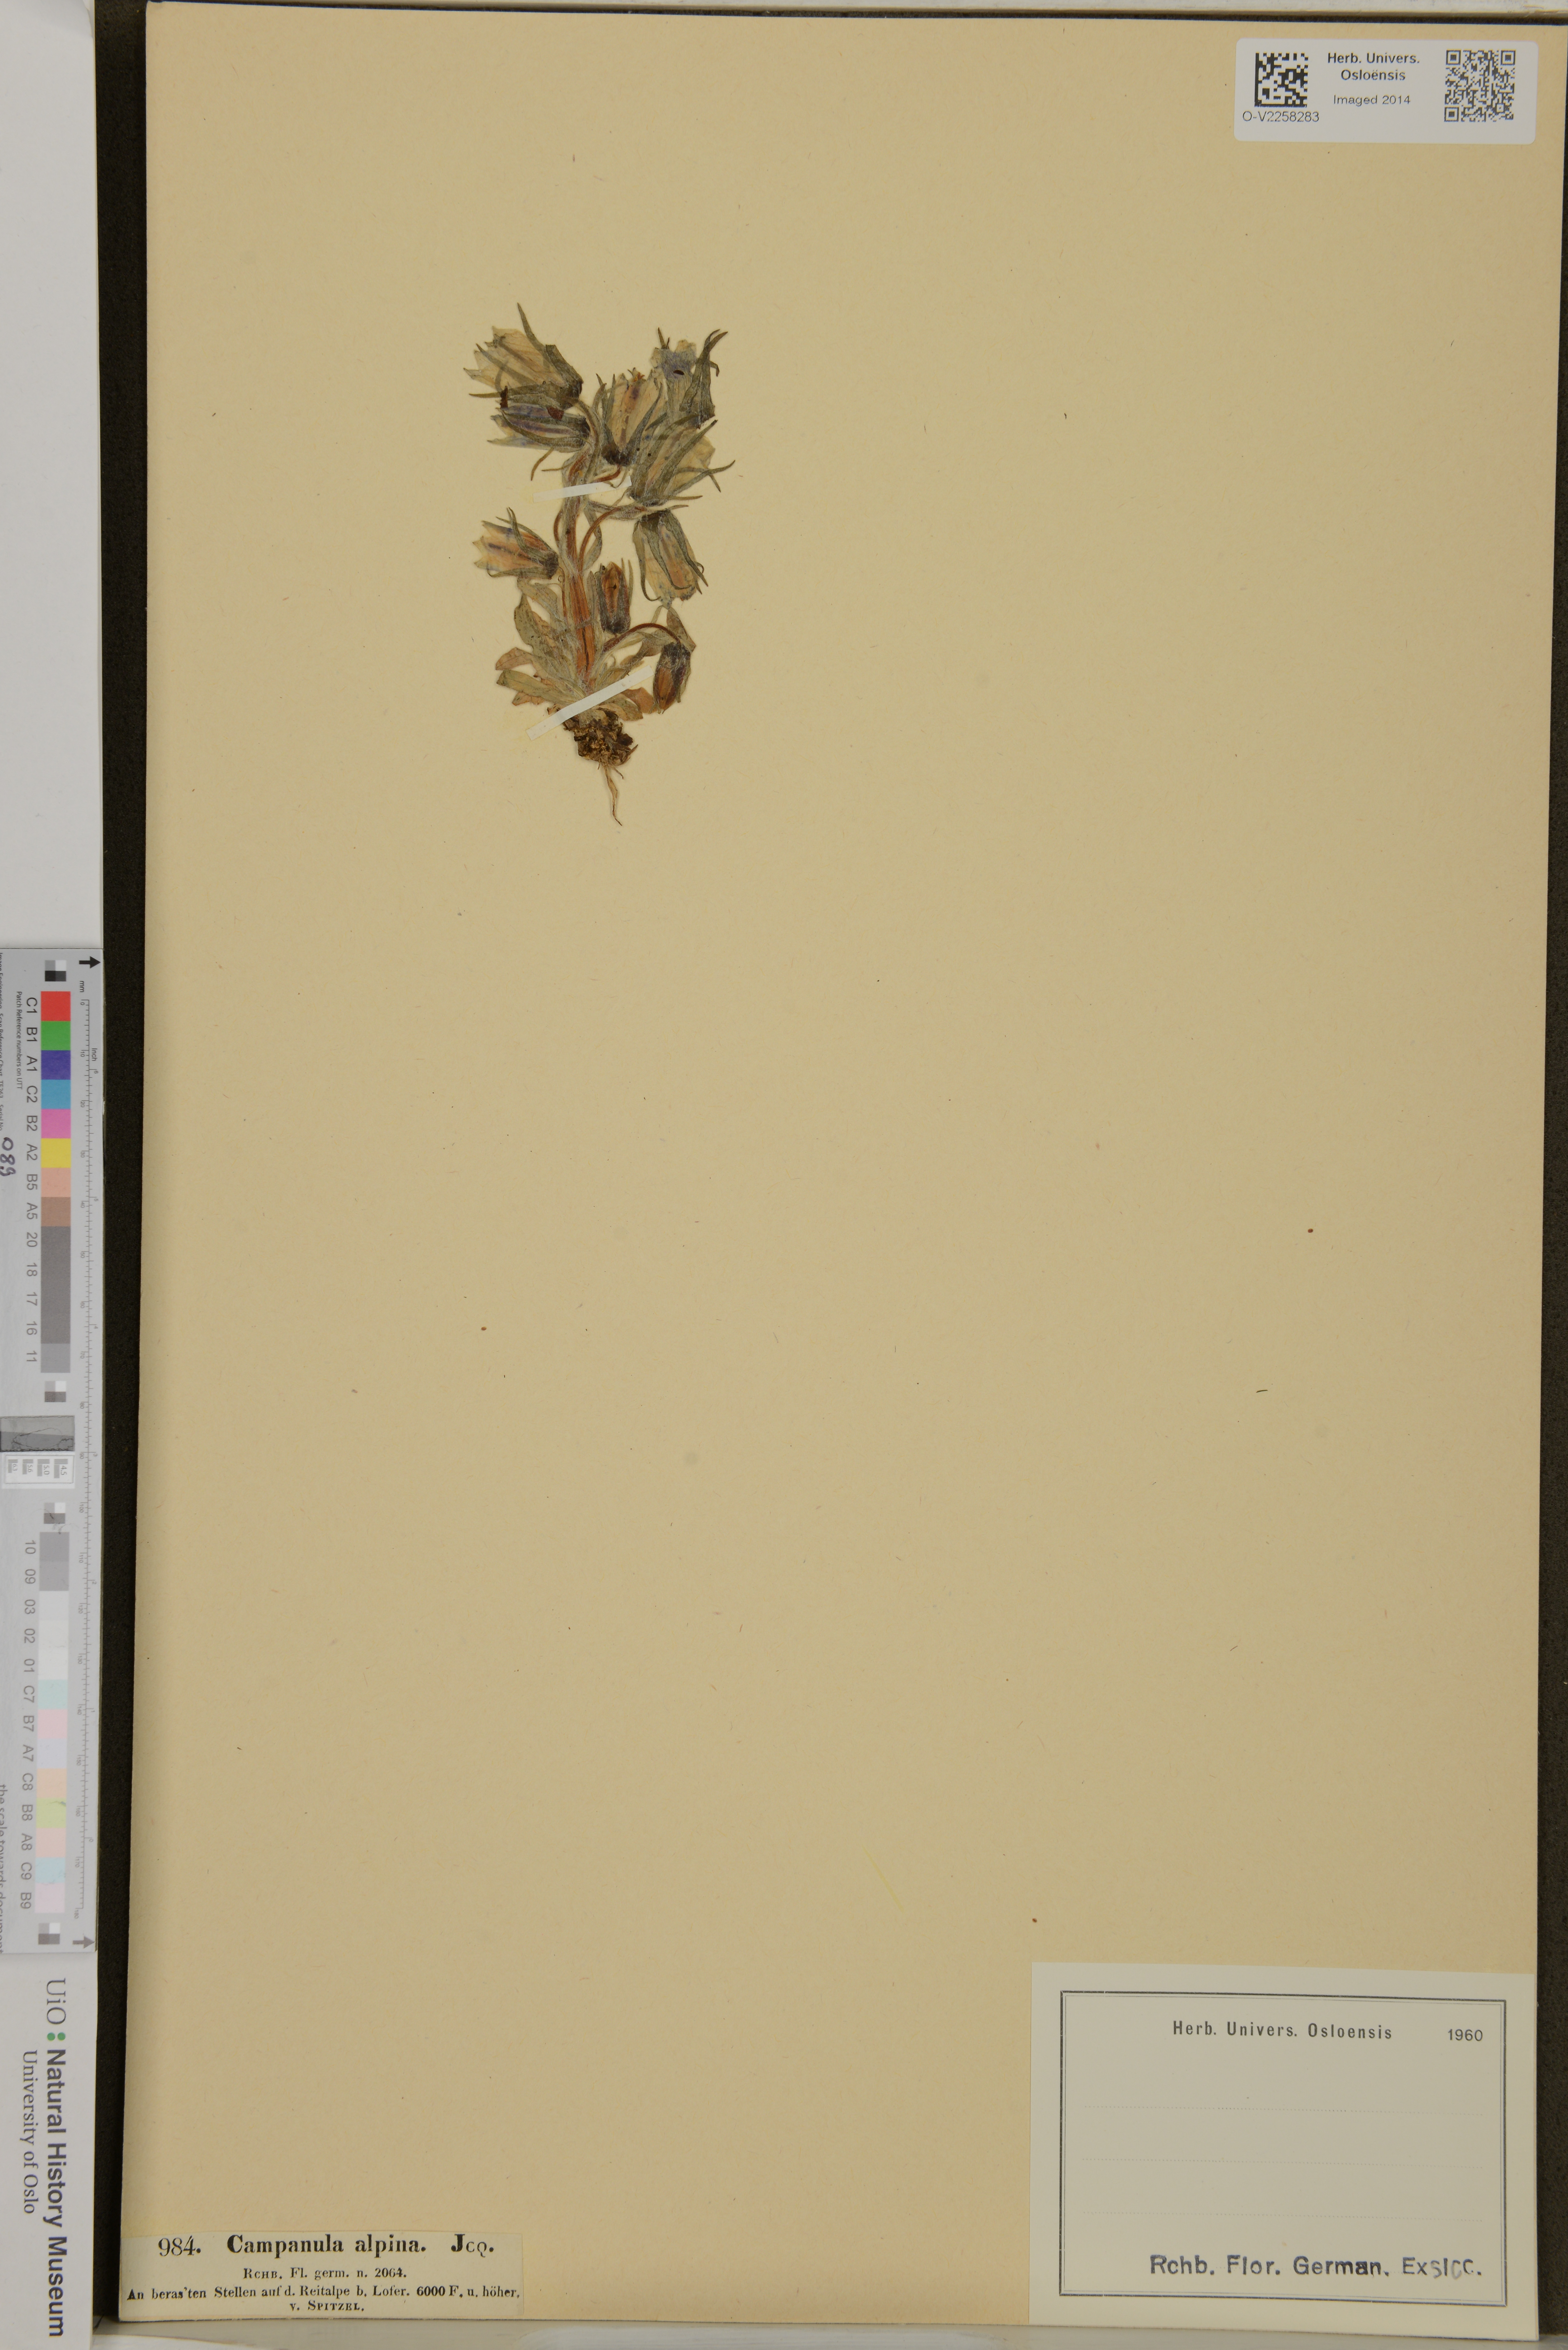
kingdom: Plantae
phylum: Tracheophyta
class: Magnoliopsida
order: Asterales
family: Campanulaceae
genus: Campanula
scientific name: Campanula alpina
